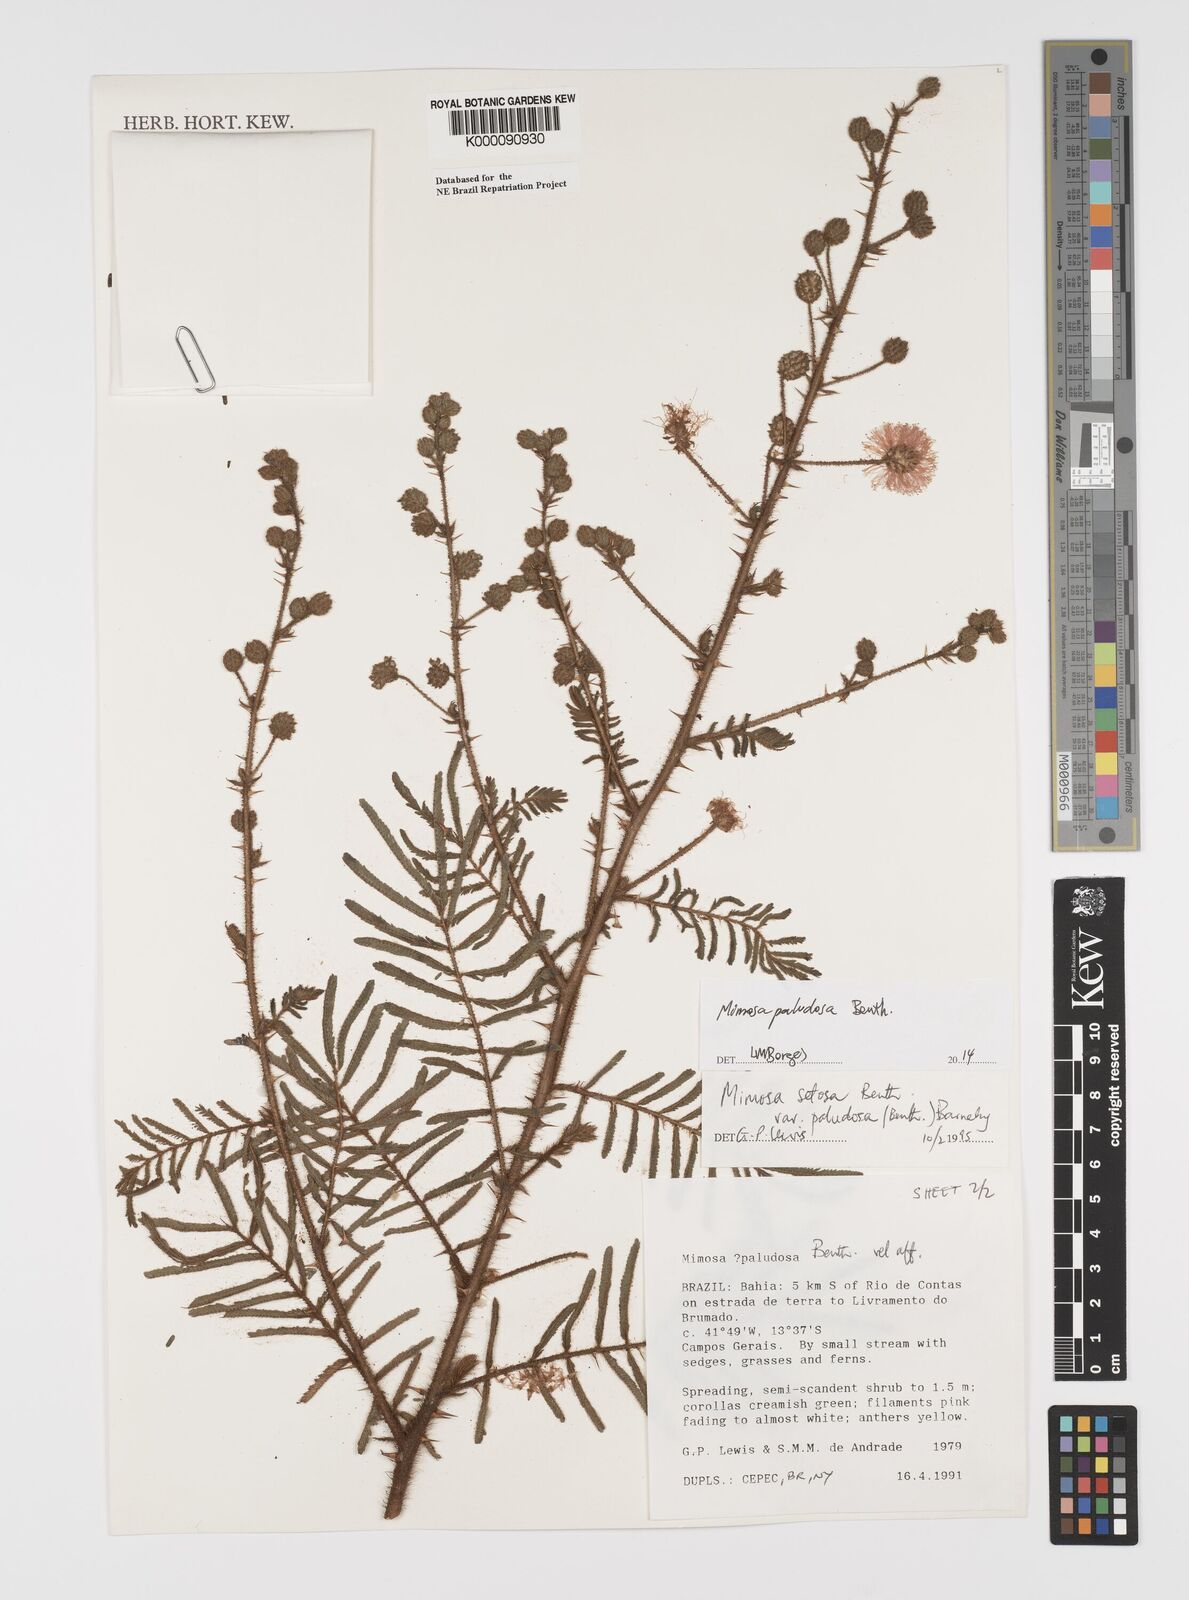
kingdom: Plantae
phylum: Tracheophyta
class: Magnoliopsida
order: Fabales
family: Fabaceae
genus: Mimosa
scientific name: Mimosa paludosa
